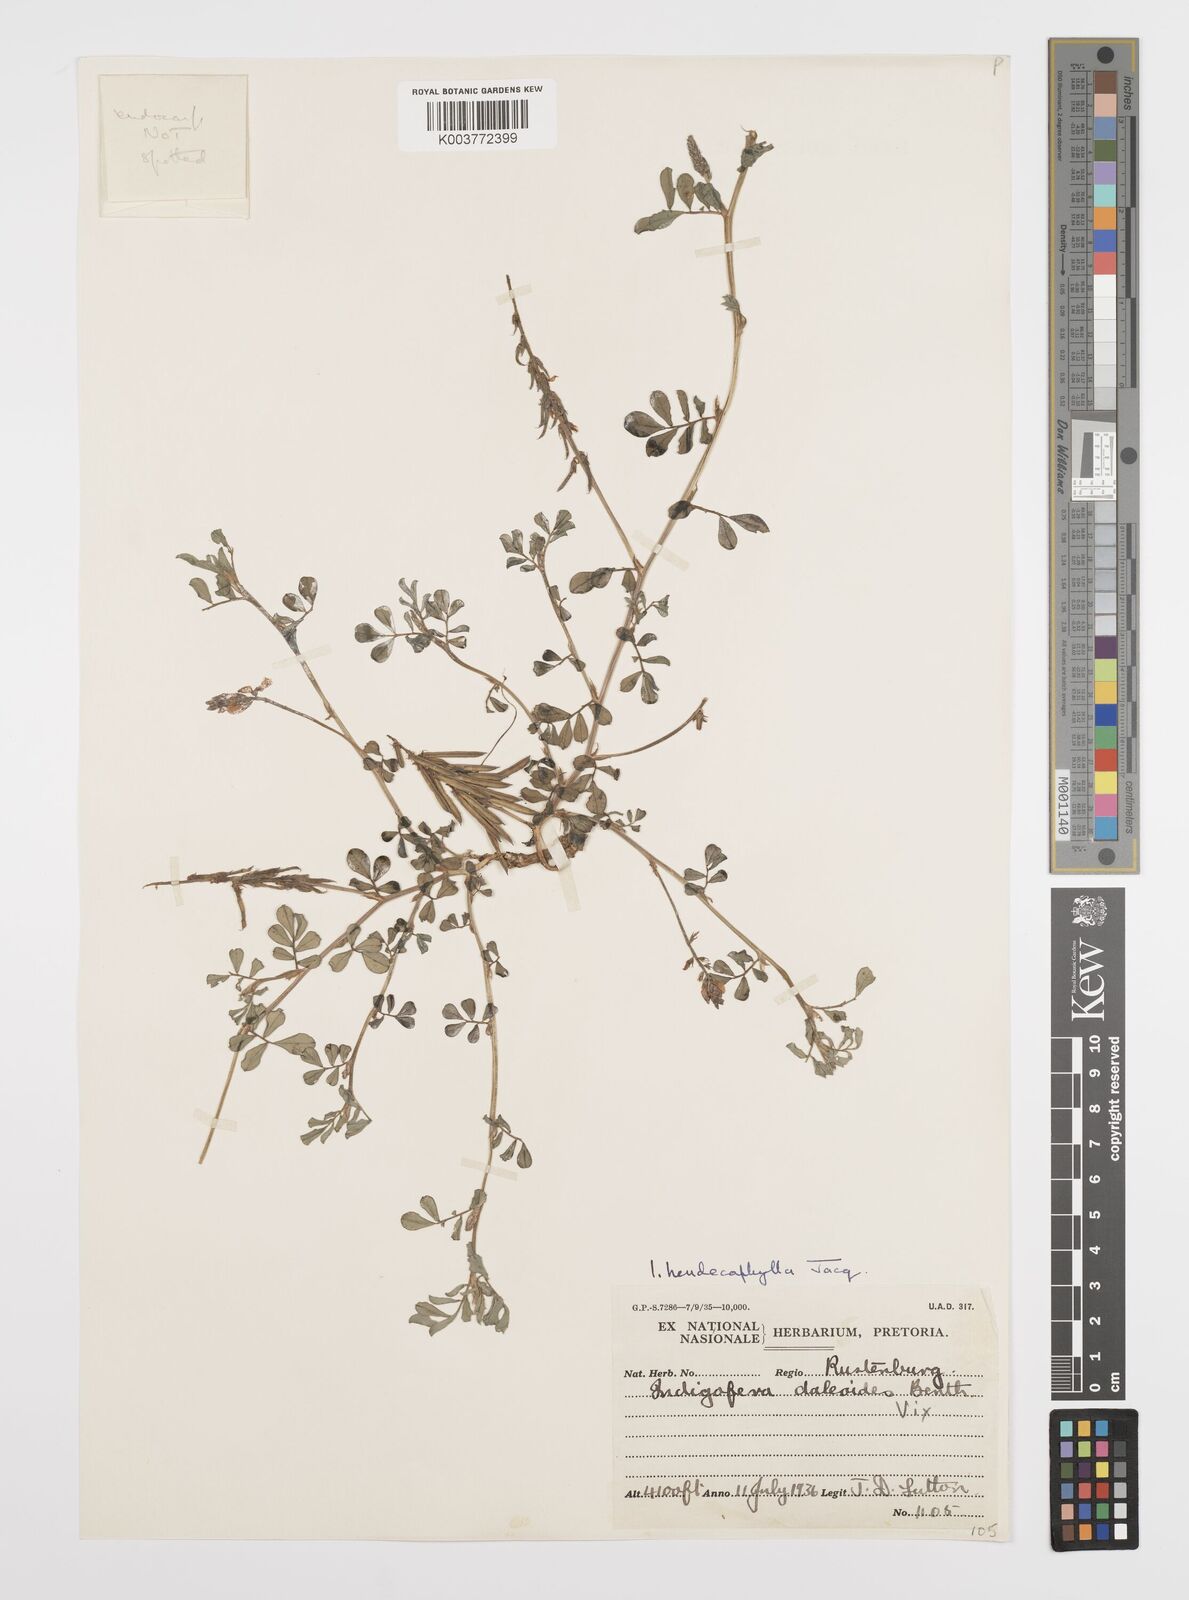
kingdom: Plantae
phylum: Tracheophyta
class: Magnoliopsida
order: Fabales
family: Fabaceae
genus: Indigofera
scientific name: Indigofera spicata
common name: Creeping indigo
